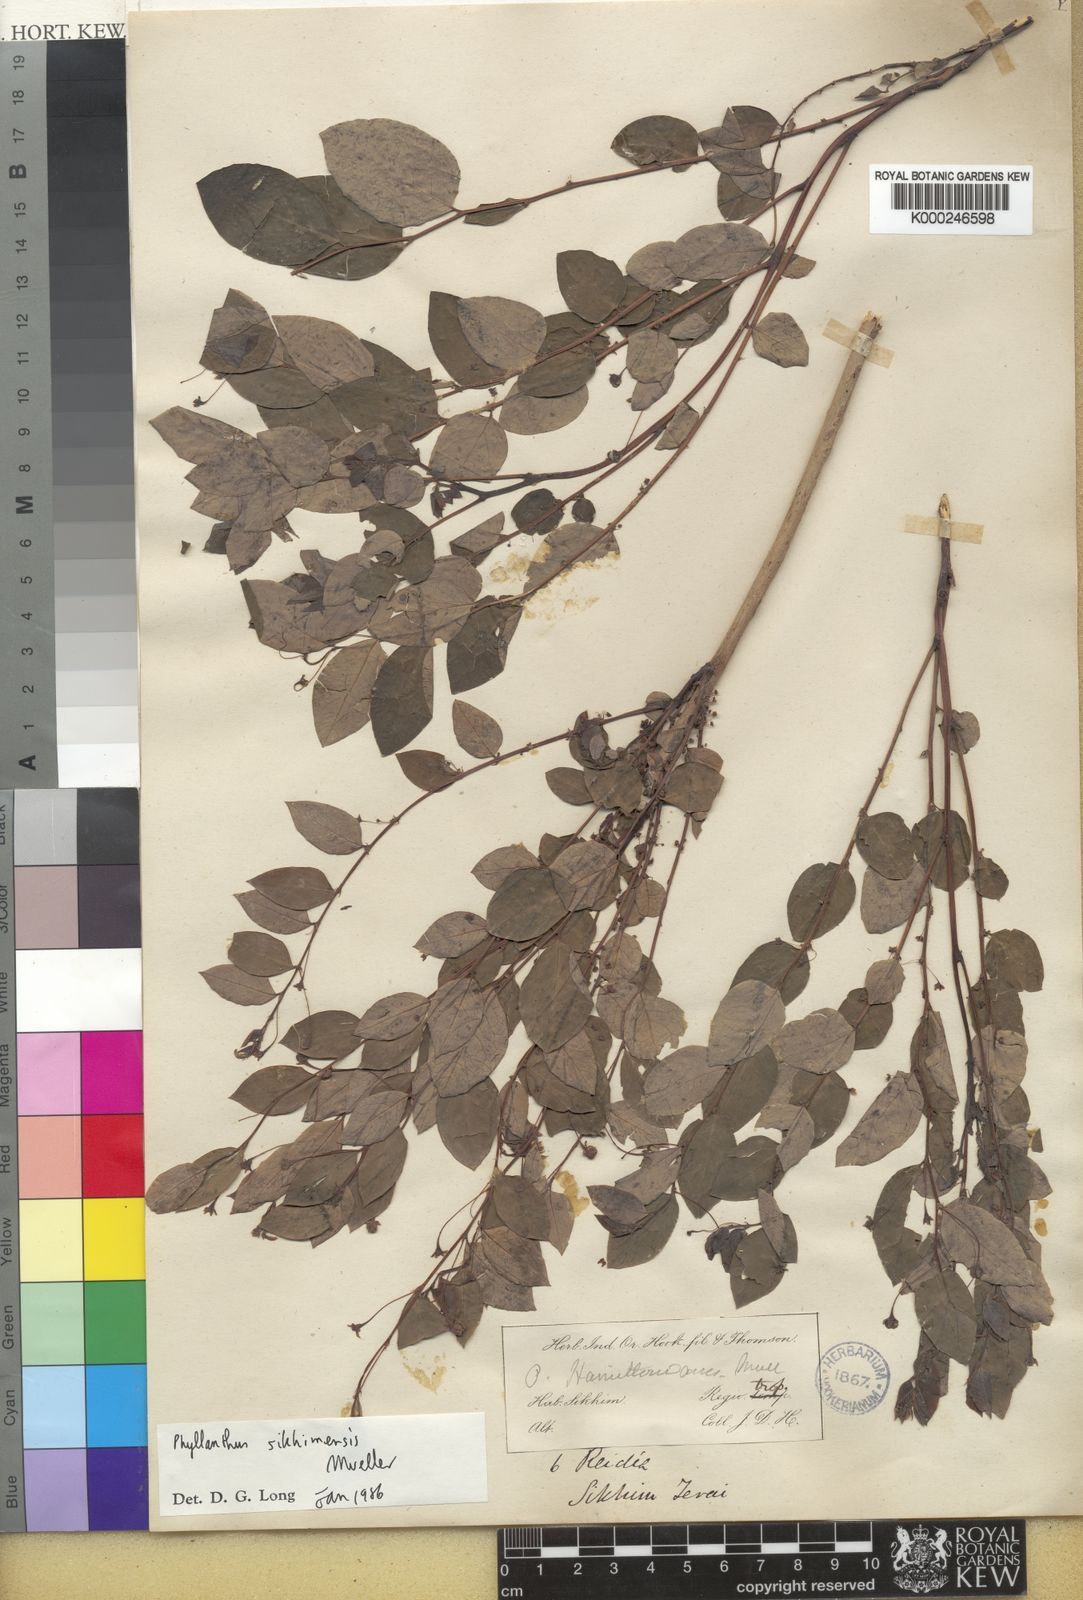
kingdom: Plantae
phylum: Tracheophyta
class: Magnoliopsida
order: Malpighiales
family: Phyllanthaceae
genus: Phyllanthus
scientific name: Phyllanthus
